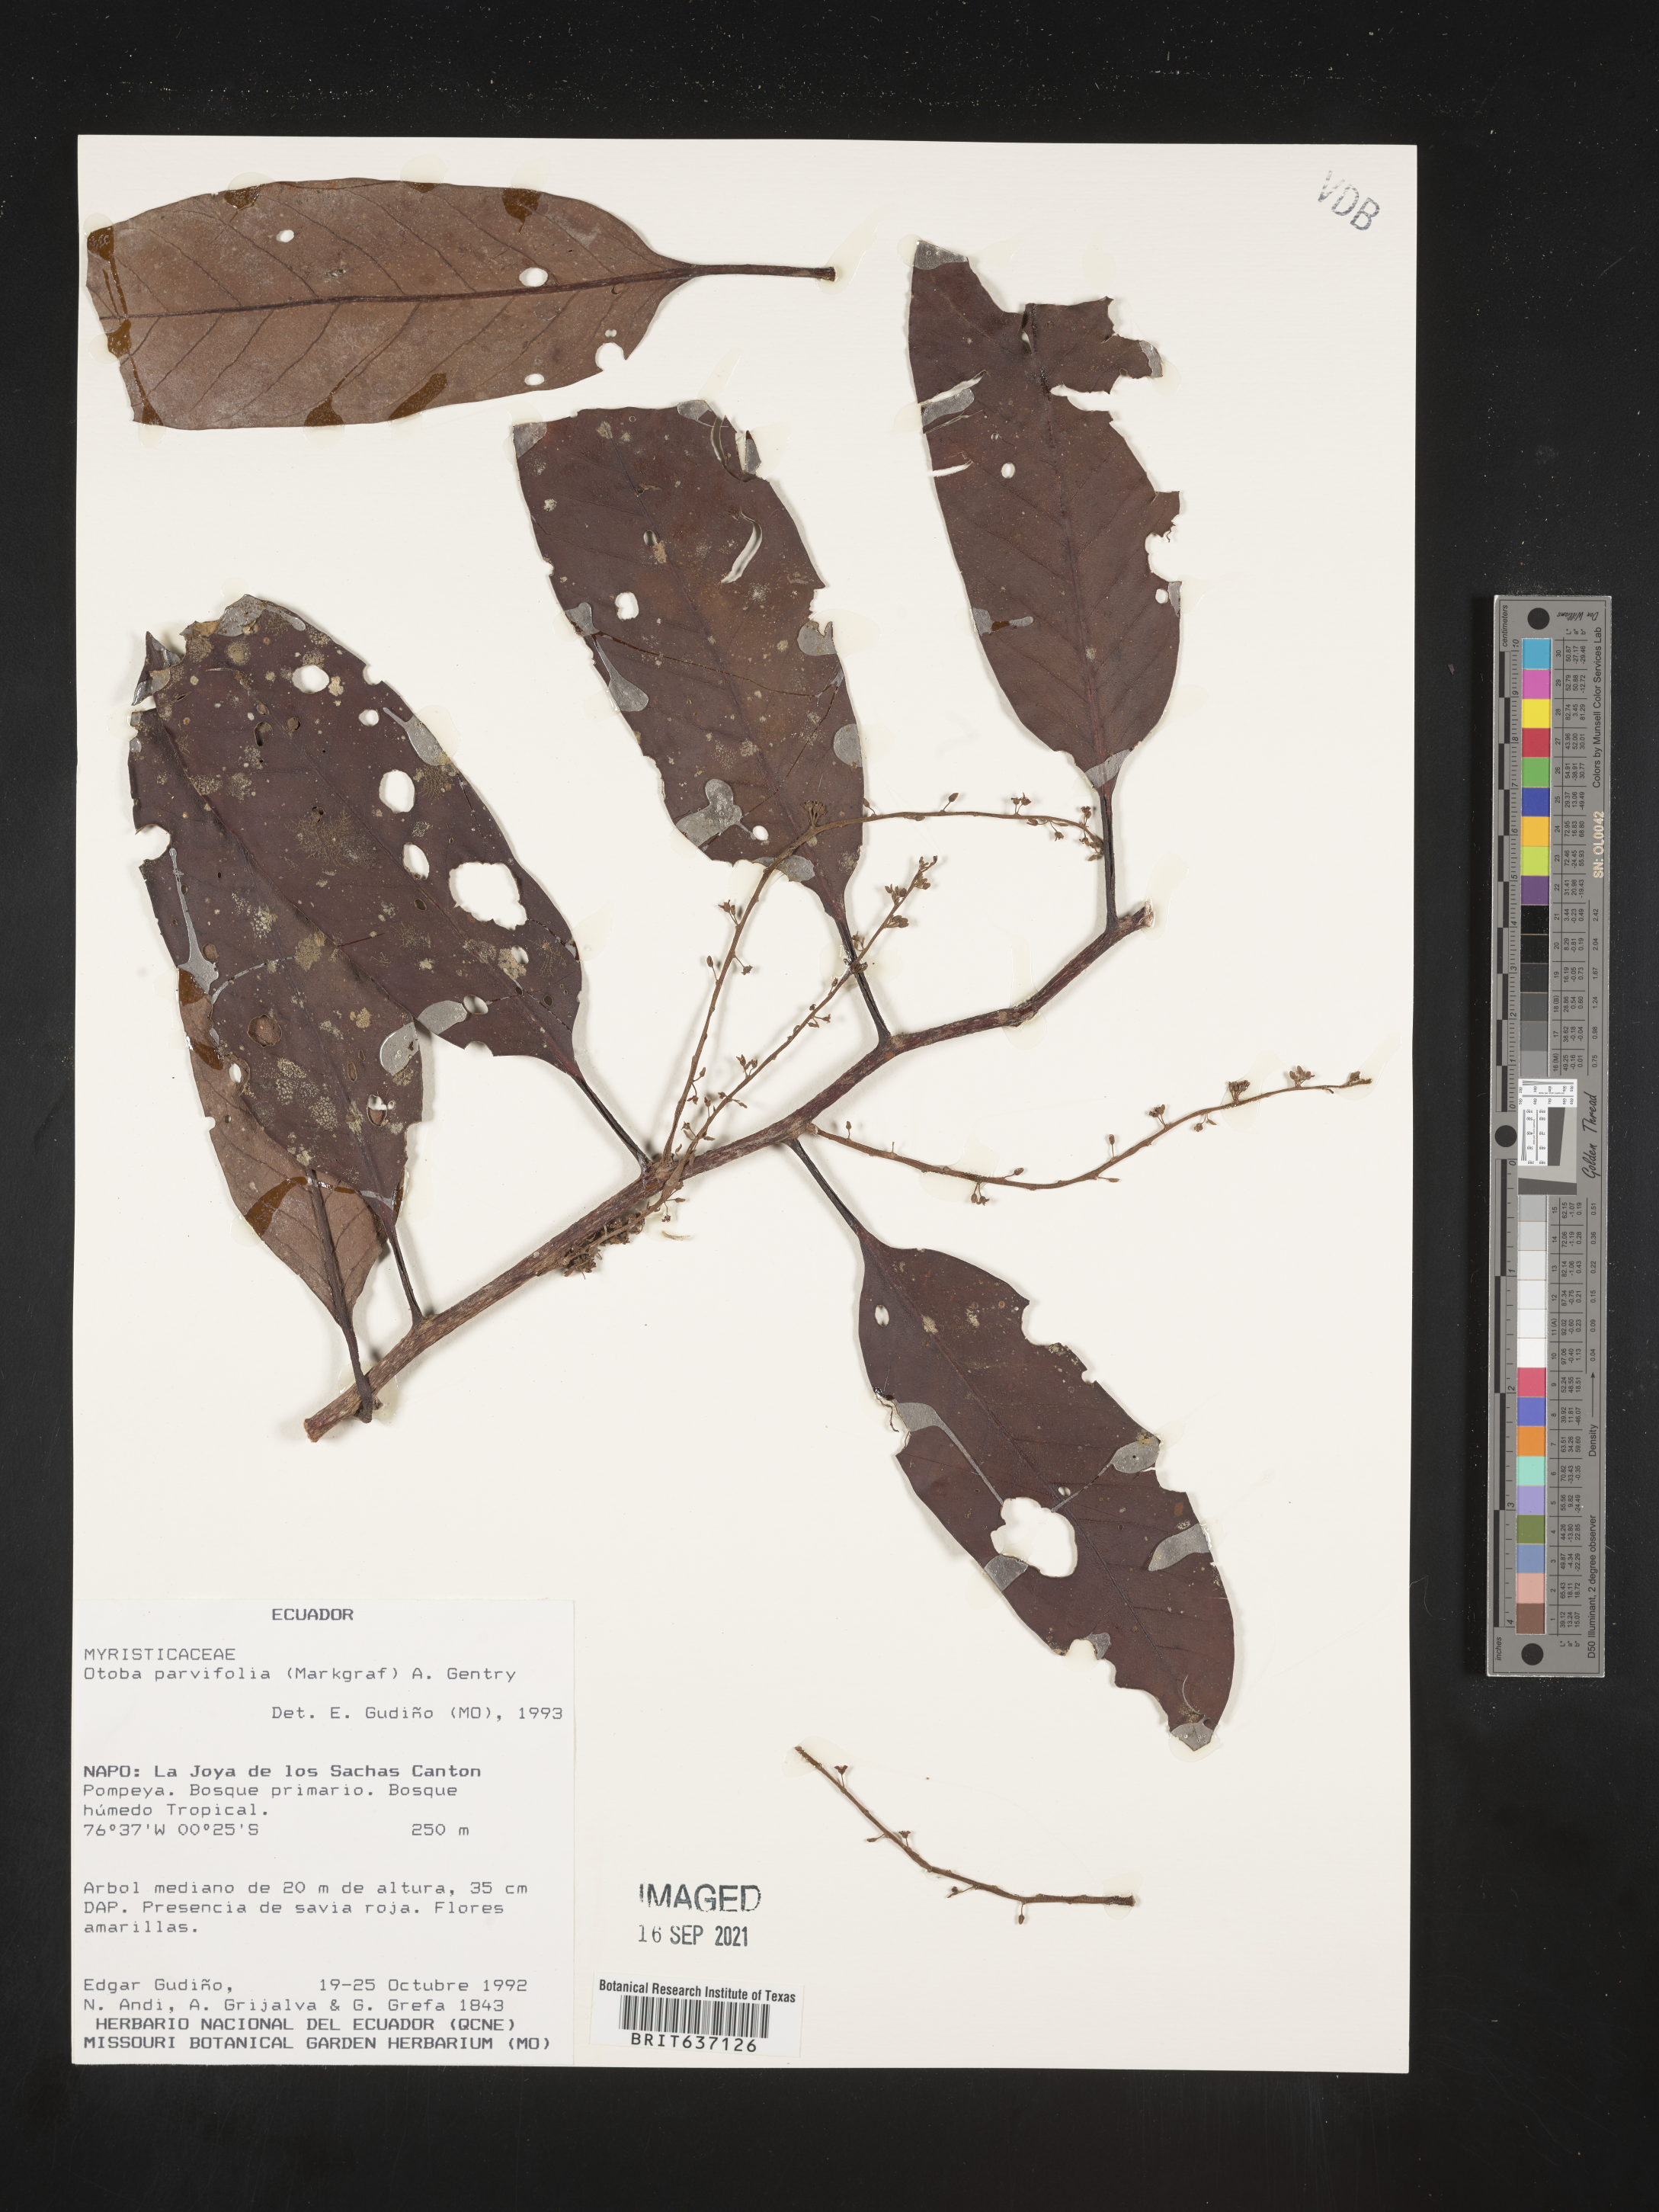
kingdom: Plantae
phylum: Tracheophyta
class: Magnoliopsida
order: Magnoliales
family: Myristicaceae
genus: Otoba
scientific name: Otoba
